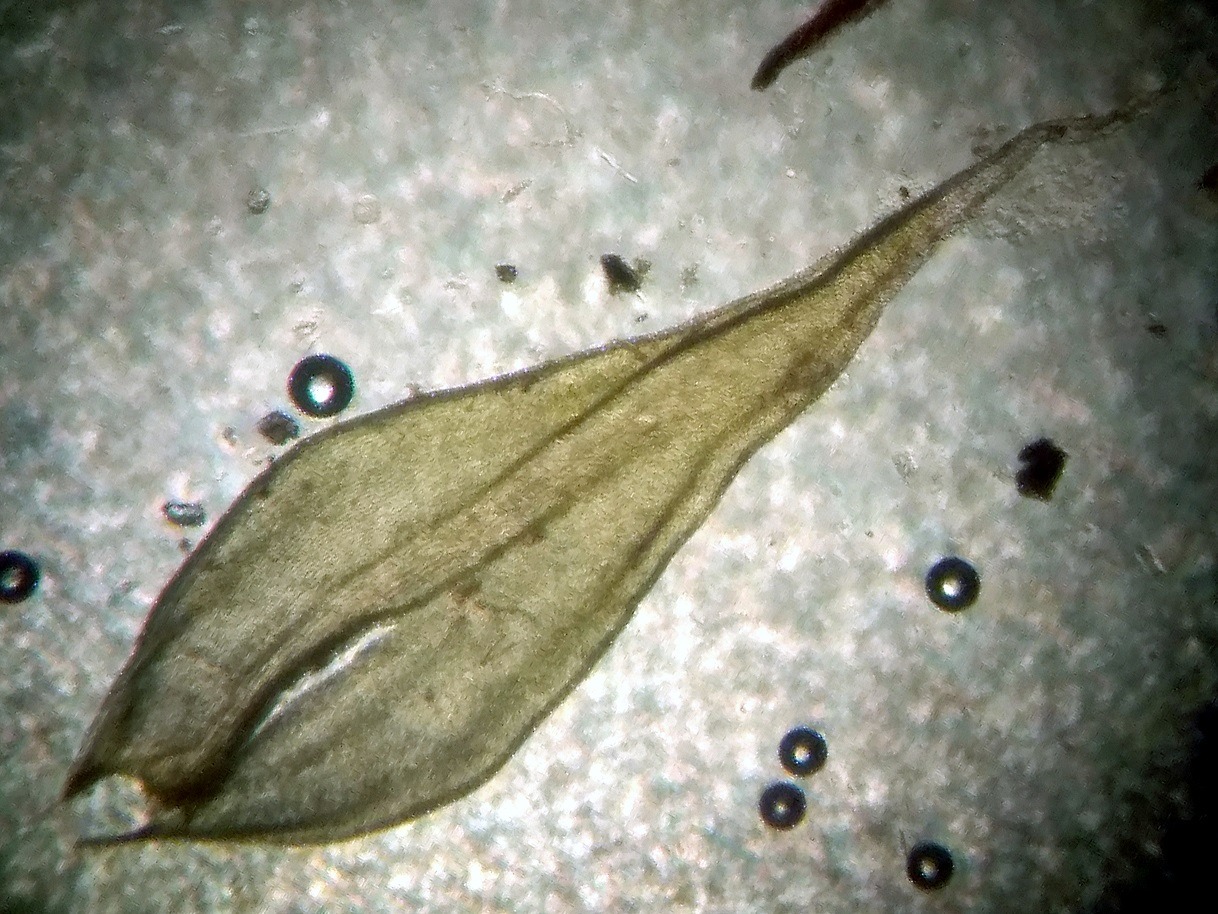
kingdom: Plantae
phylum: Bryophyta
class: Bryopsida
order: Grimmiales
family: Grimmiaceae
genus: Niphotrichum
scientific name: Niphotrichum canescens
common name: Sand-børstemos
